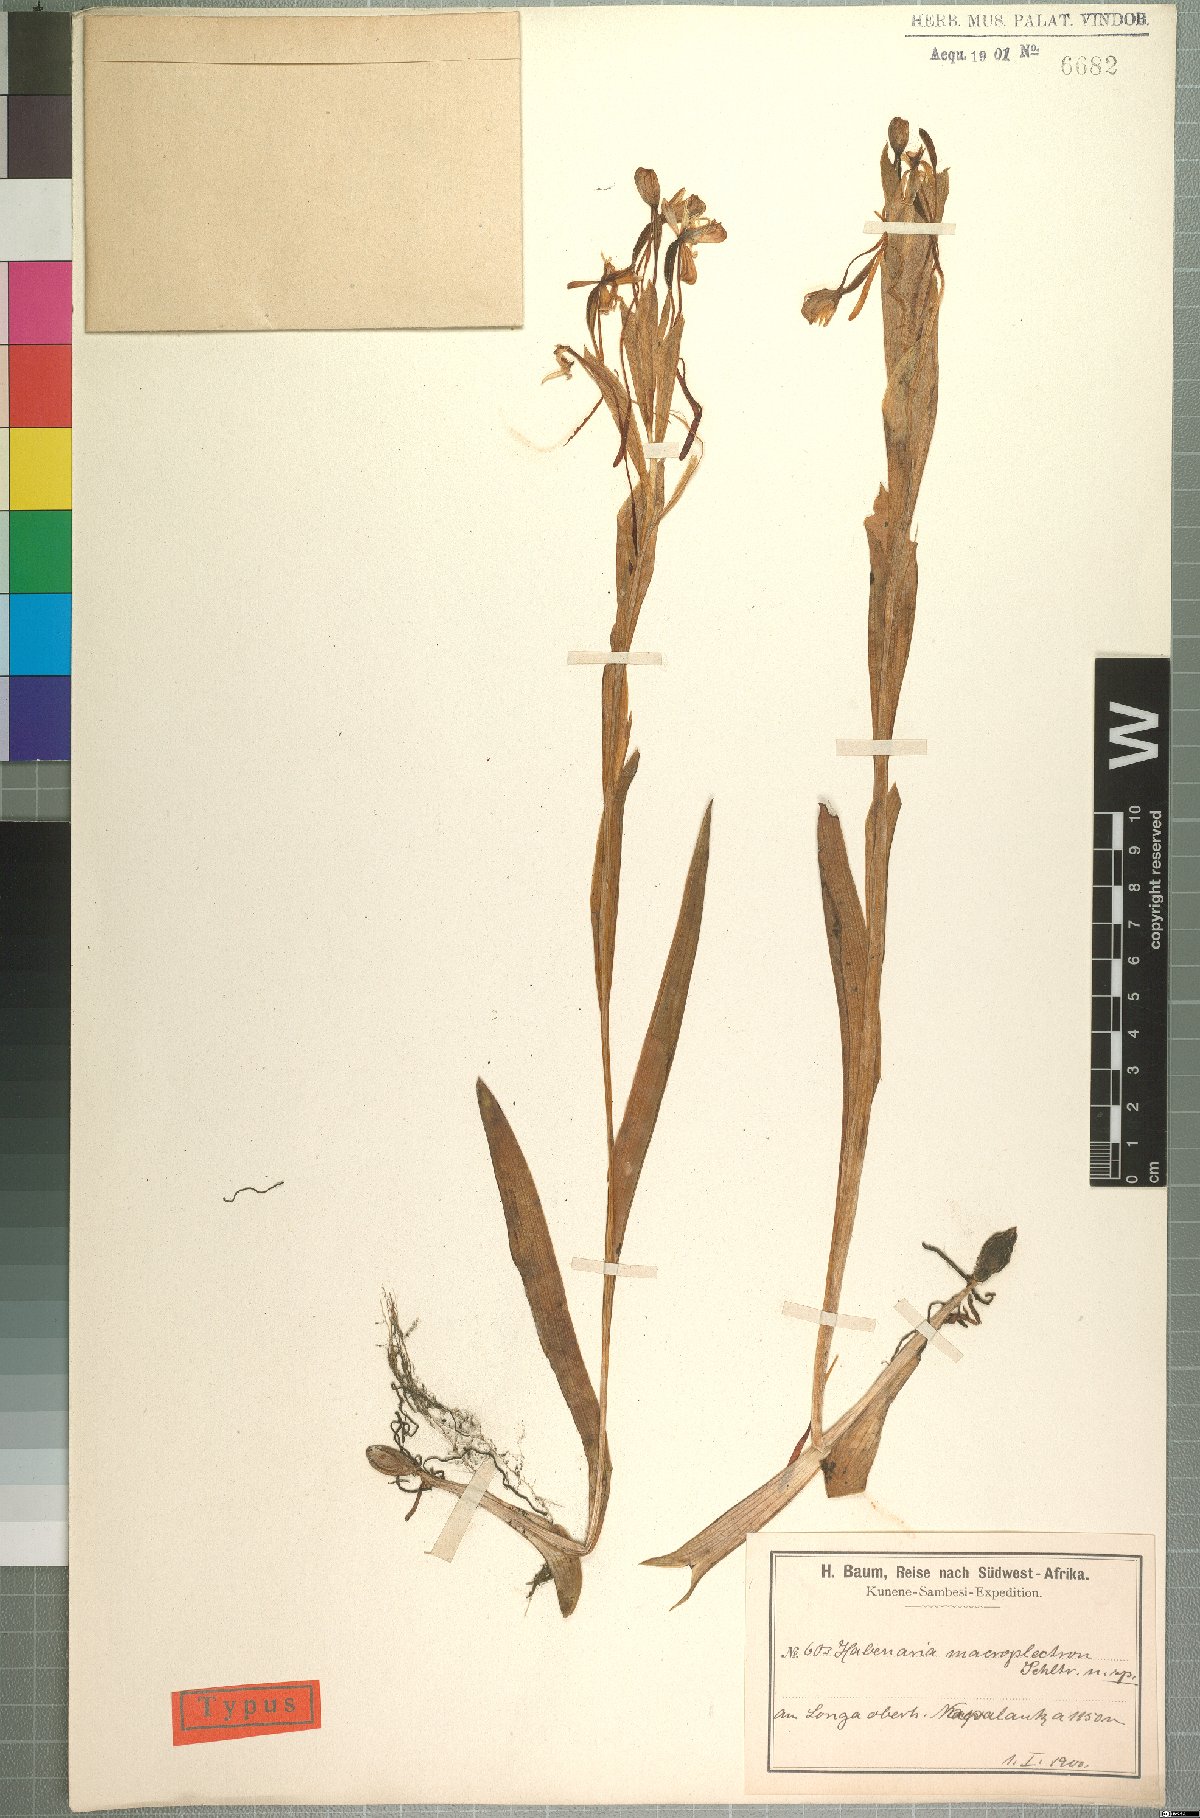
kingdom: Plantae
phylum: Tracheophyta
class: Liliopsida
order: Asparagales
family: Orchidaceae
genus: Habenaria
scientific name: Habenaria macroplectron
